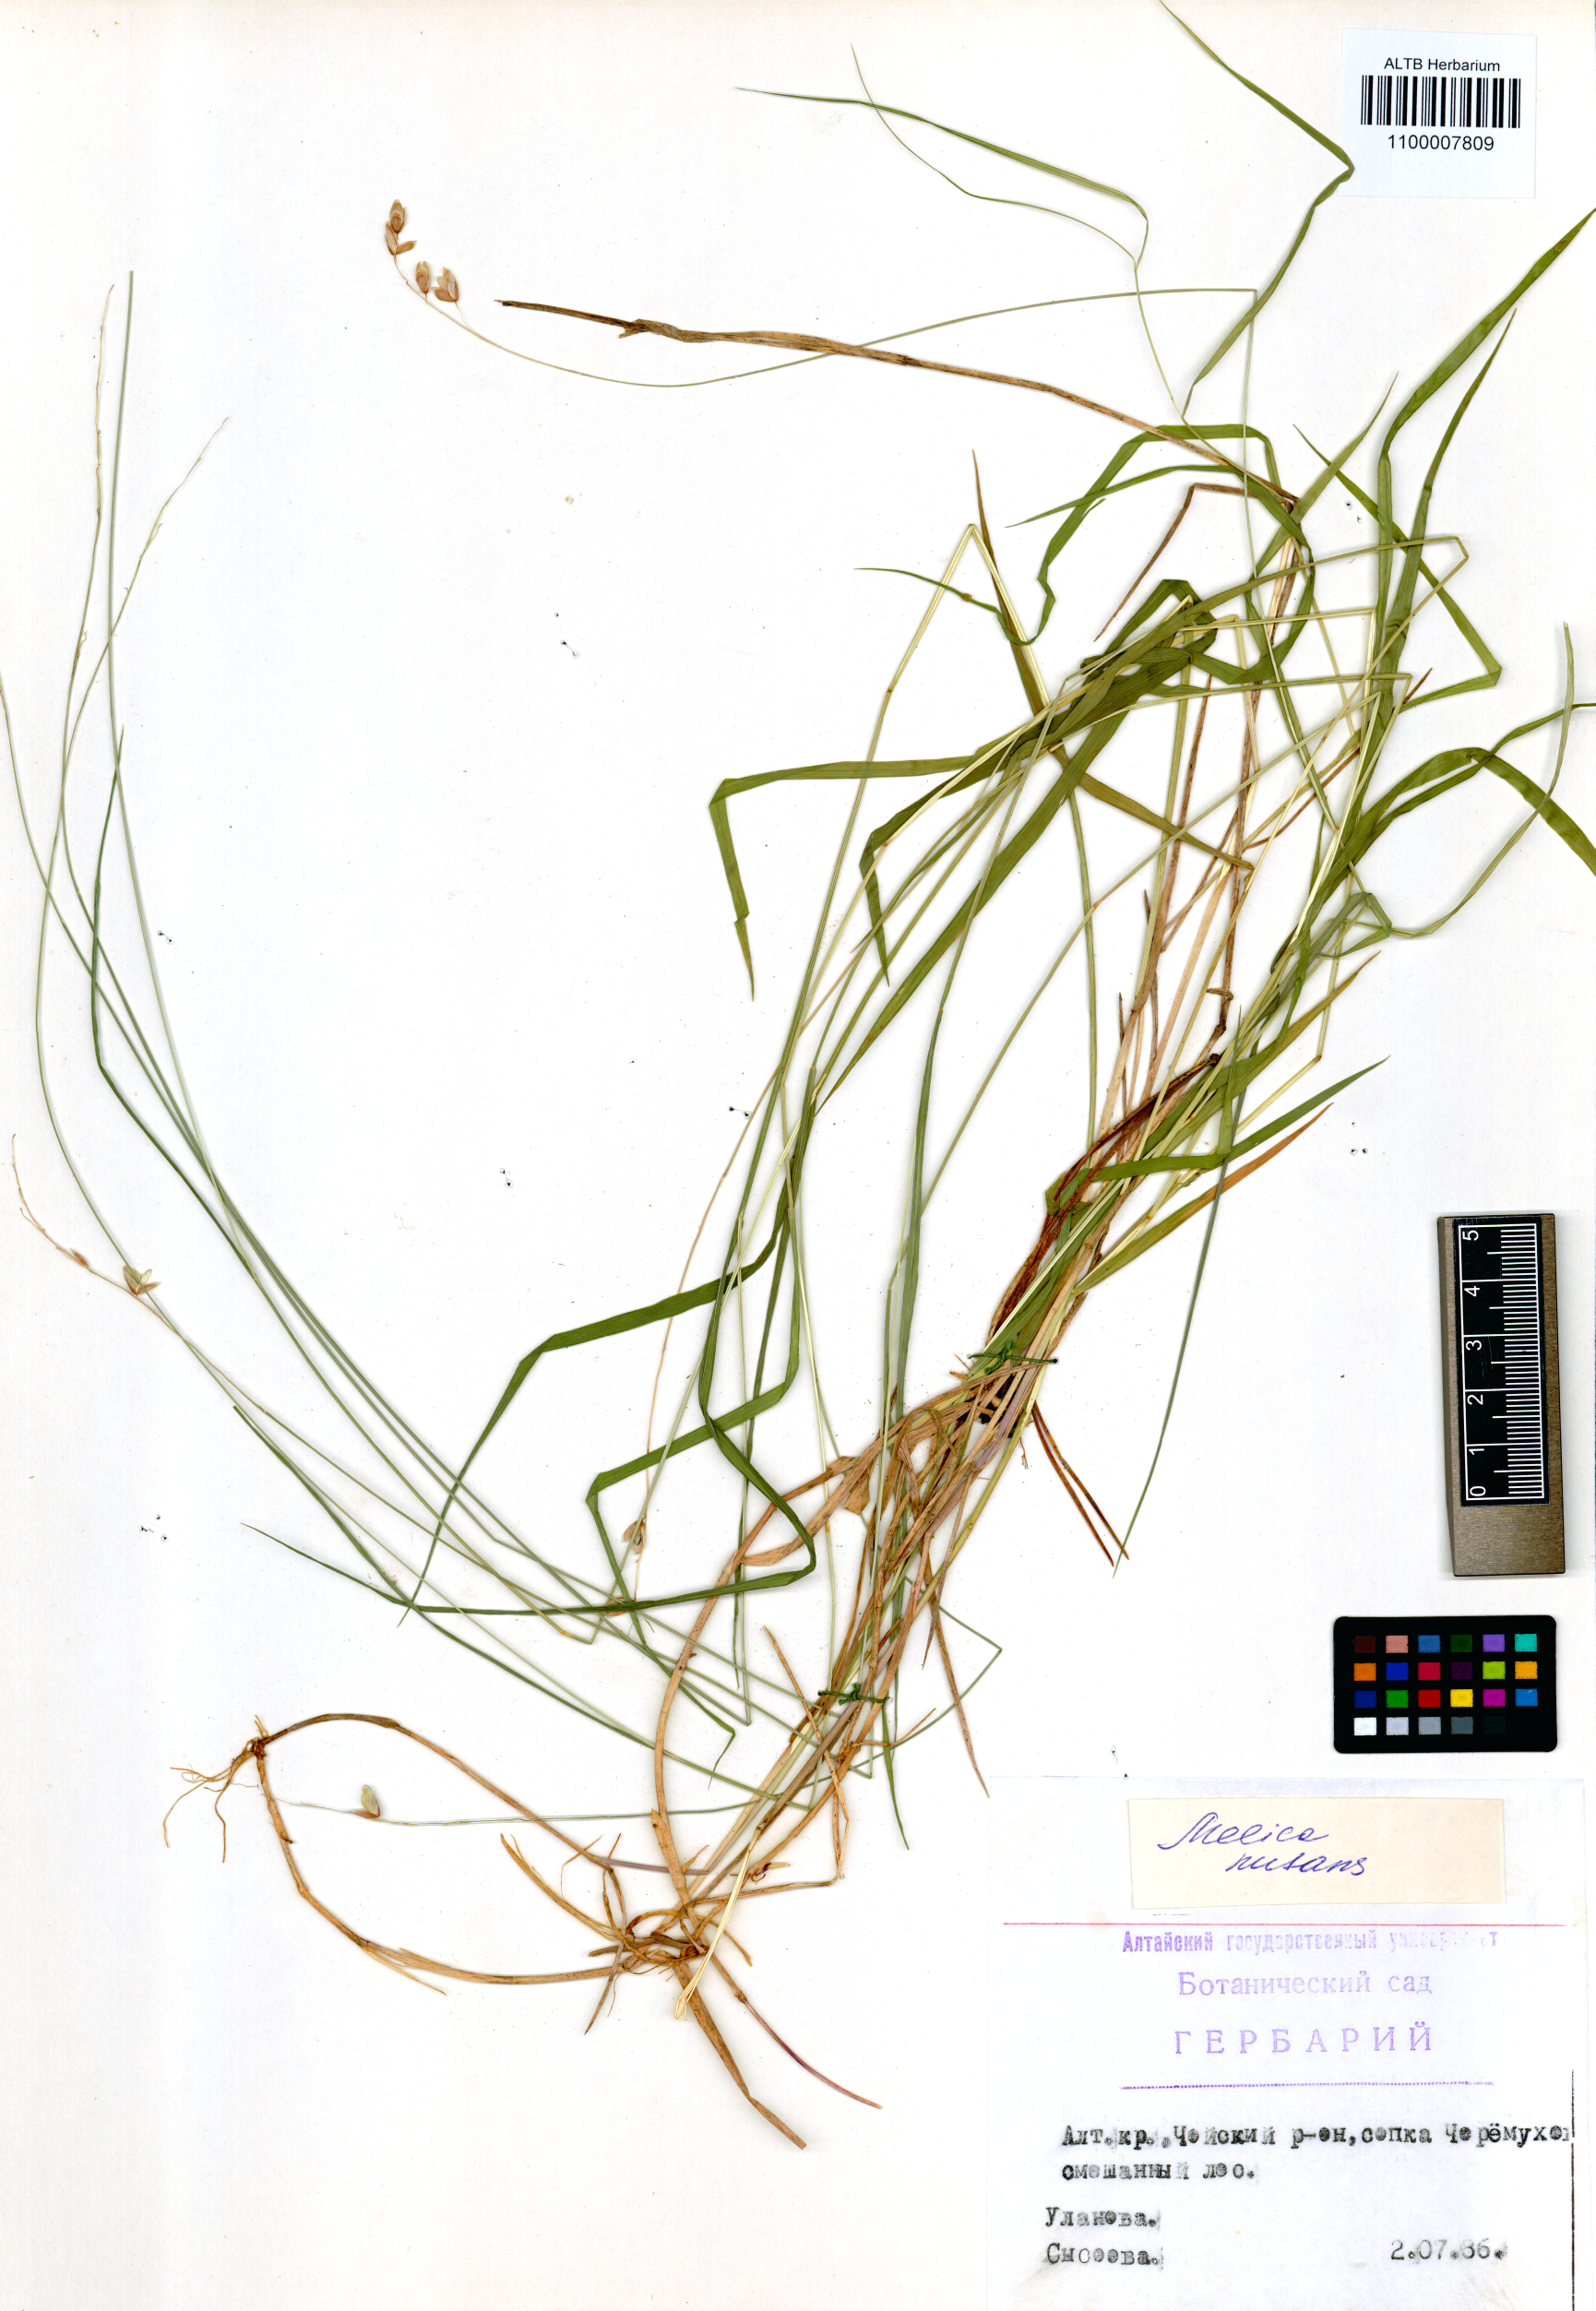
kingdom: Plantae
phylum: Tracheophyta
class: Liliopsida
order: Poales
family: Poaceae
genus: Melica
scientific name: Melica nutans
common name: Mountain melick
